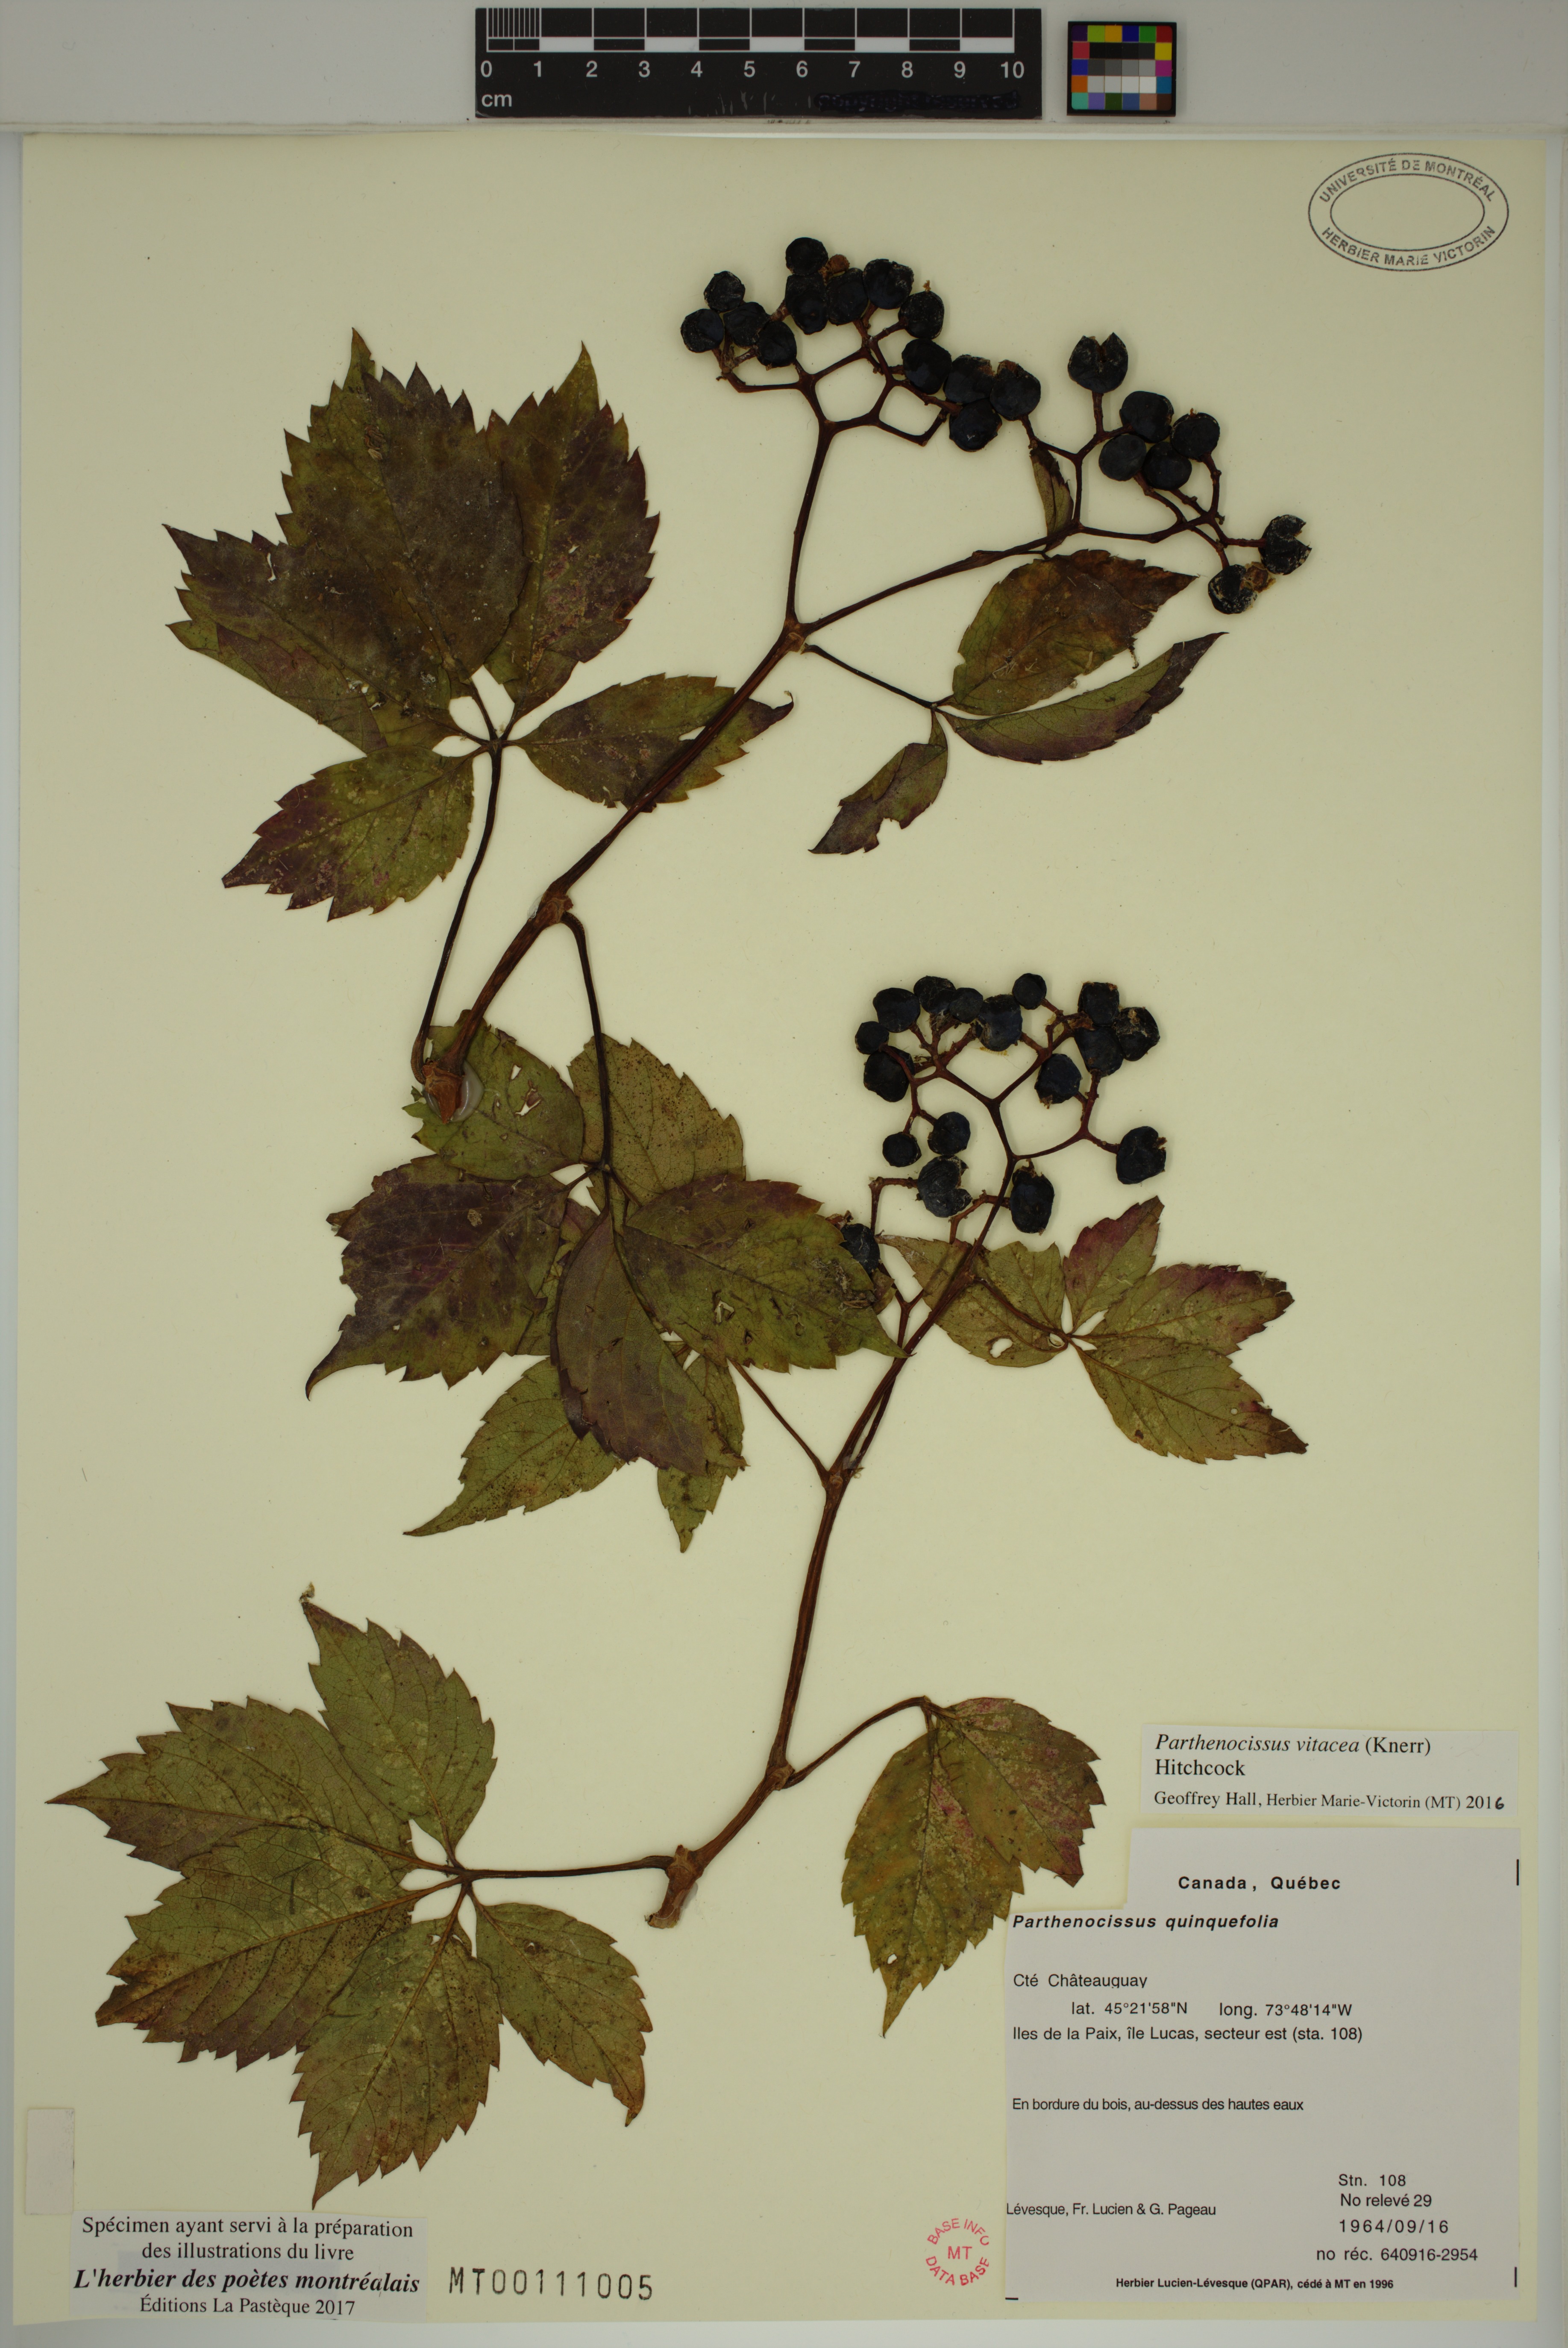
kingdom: Plantae
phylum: Tracheophyta
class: Magnoliopsida
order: Vitales
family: Vitaceae
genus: Parthenocissus
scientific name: Parthenocissus inserta
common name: False virginia-creeper
